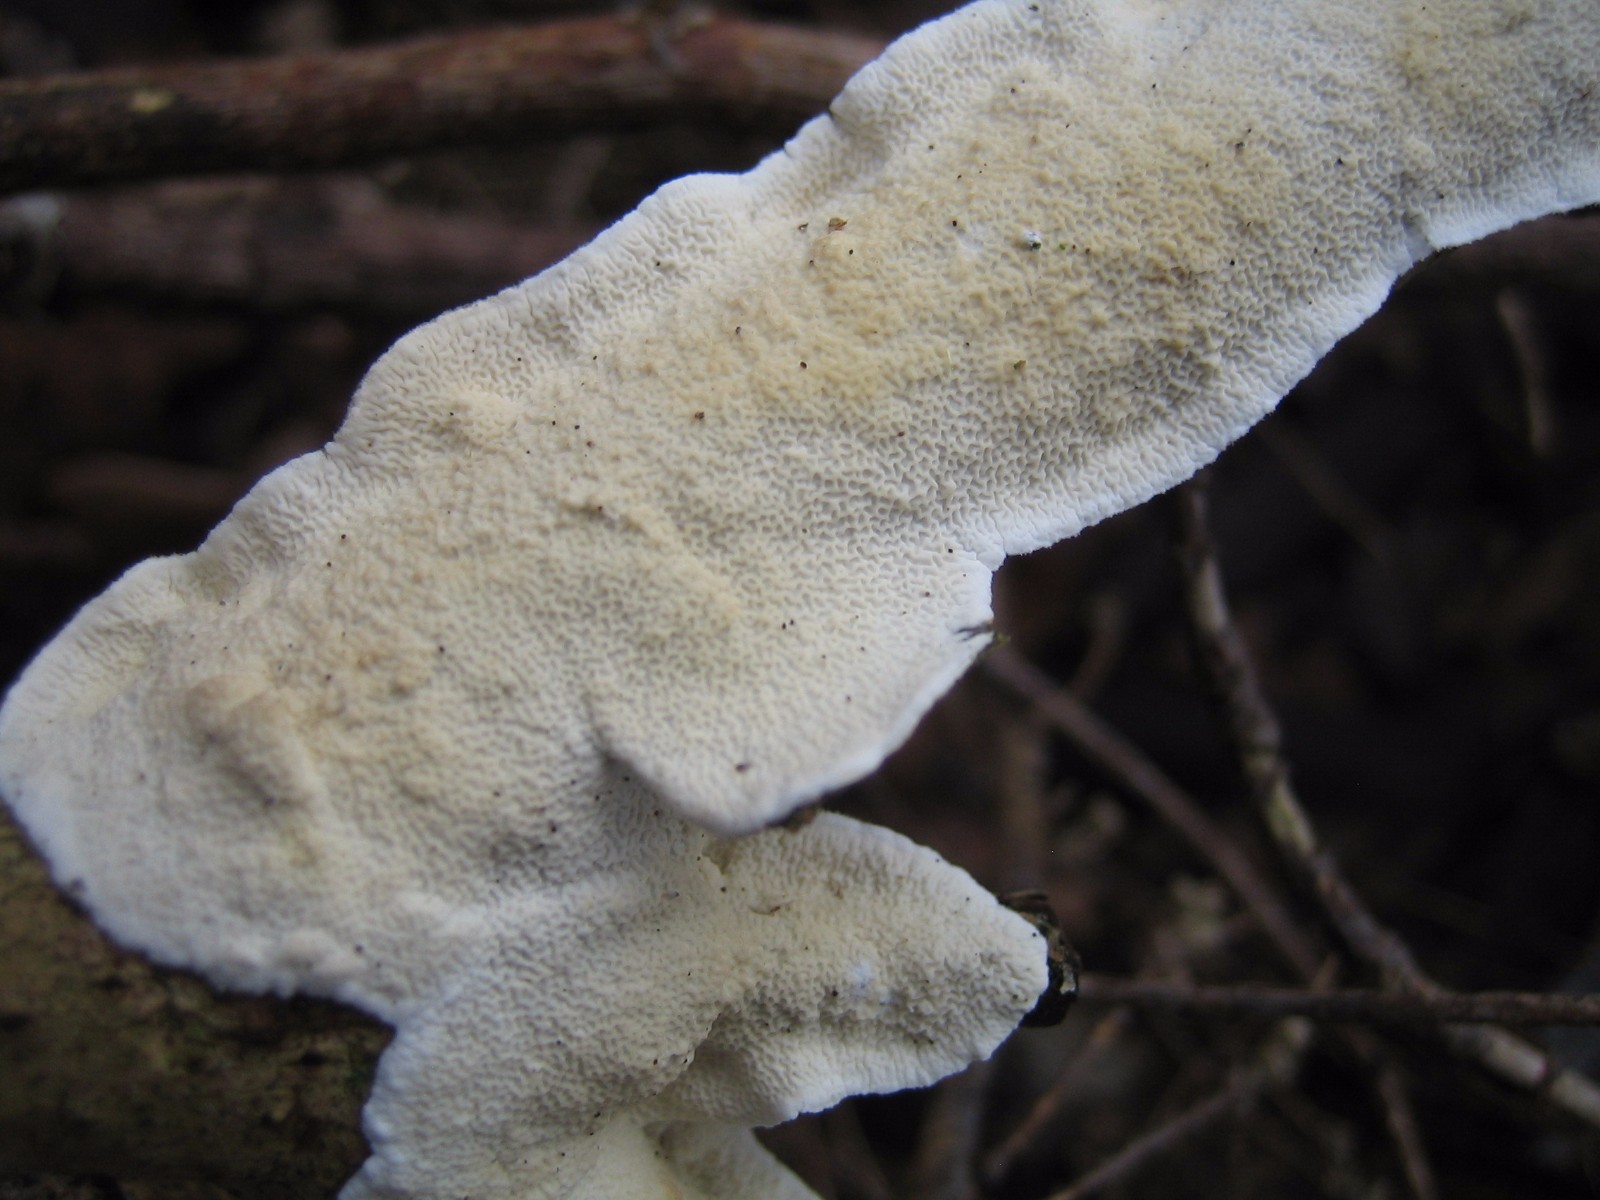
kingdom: Fungi
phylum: Basidiomycota
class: Agaricomycetes
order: Polyporales
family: Irpicaceae
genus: Byssomerulius
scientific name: Byssomerulius corium
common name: læder-åresvamp
